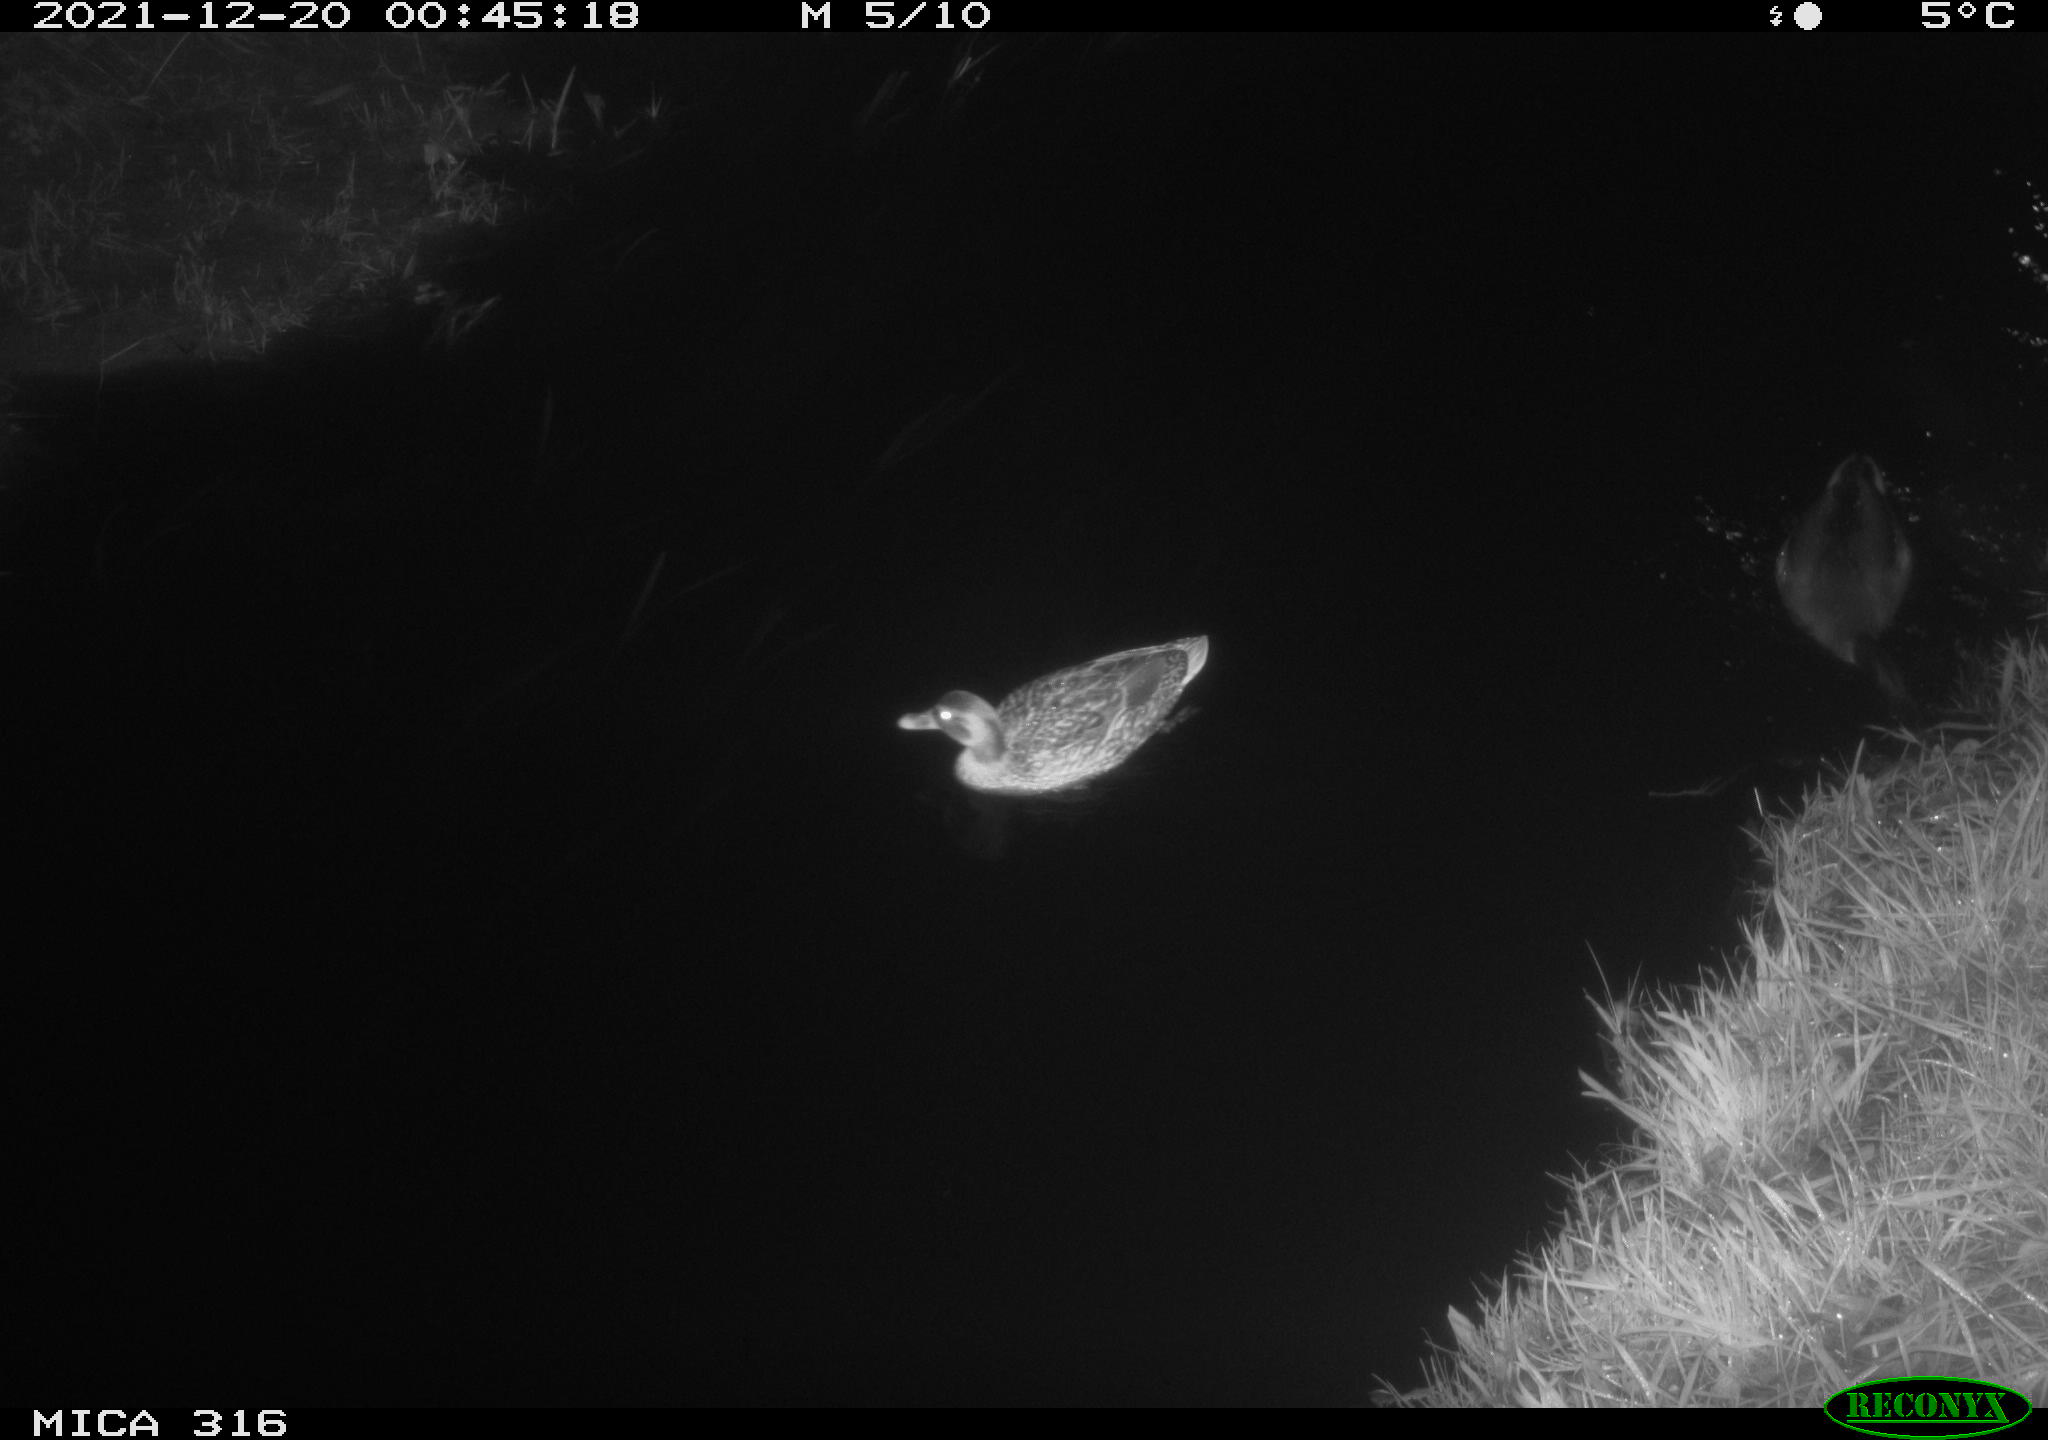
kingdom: Animalia
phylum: Chordata
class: Aves
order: Anseriformes
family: Anatidae
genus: Anas
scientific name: Anas
